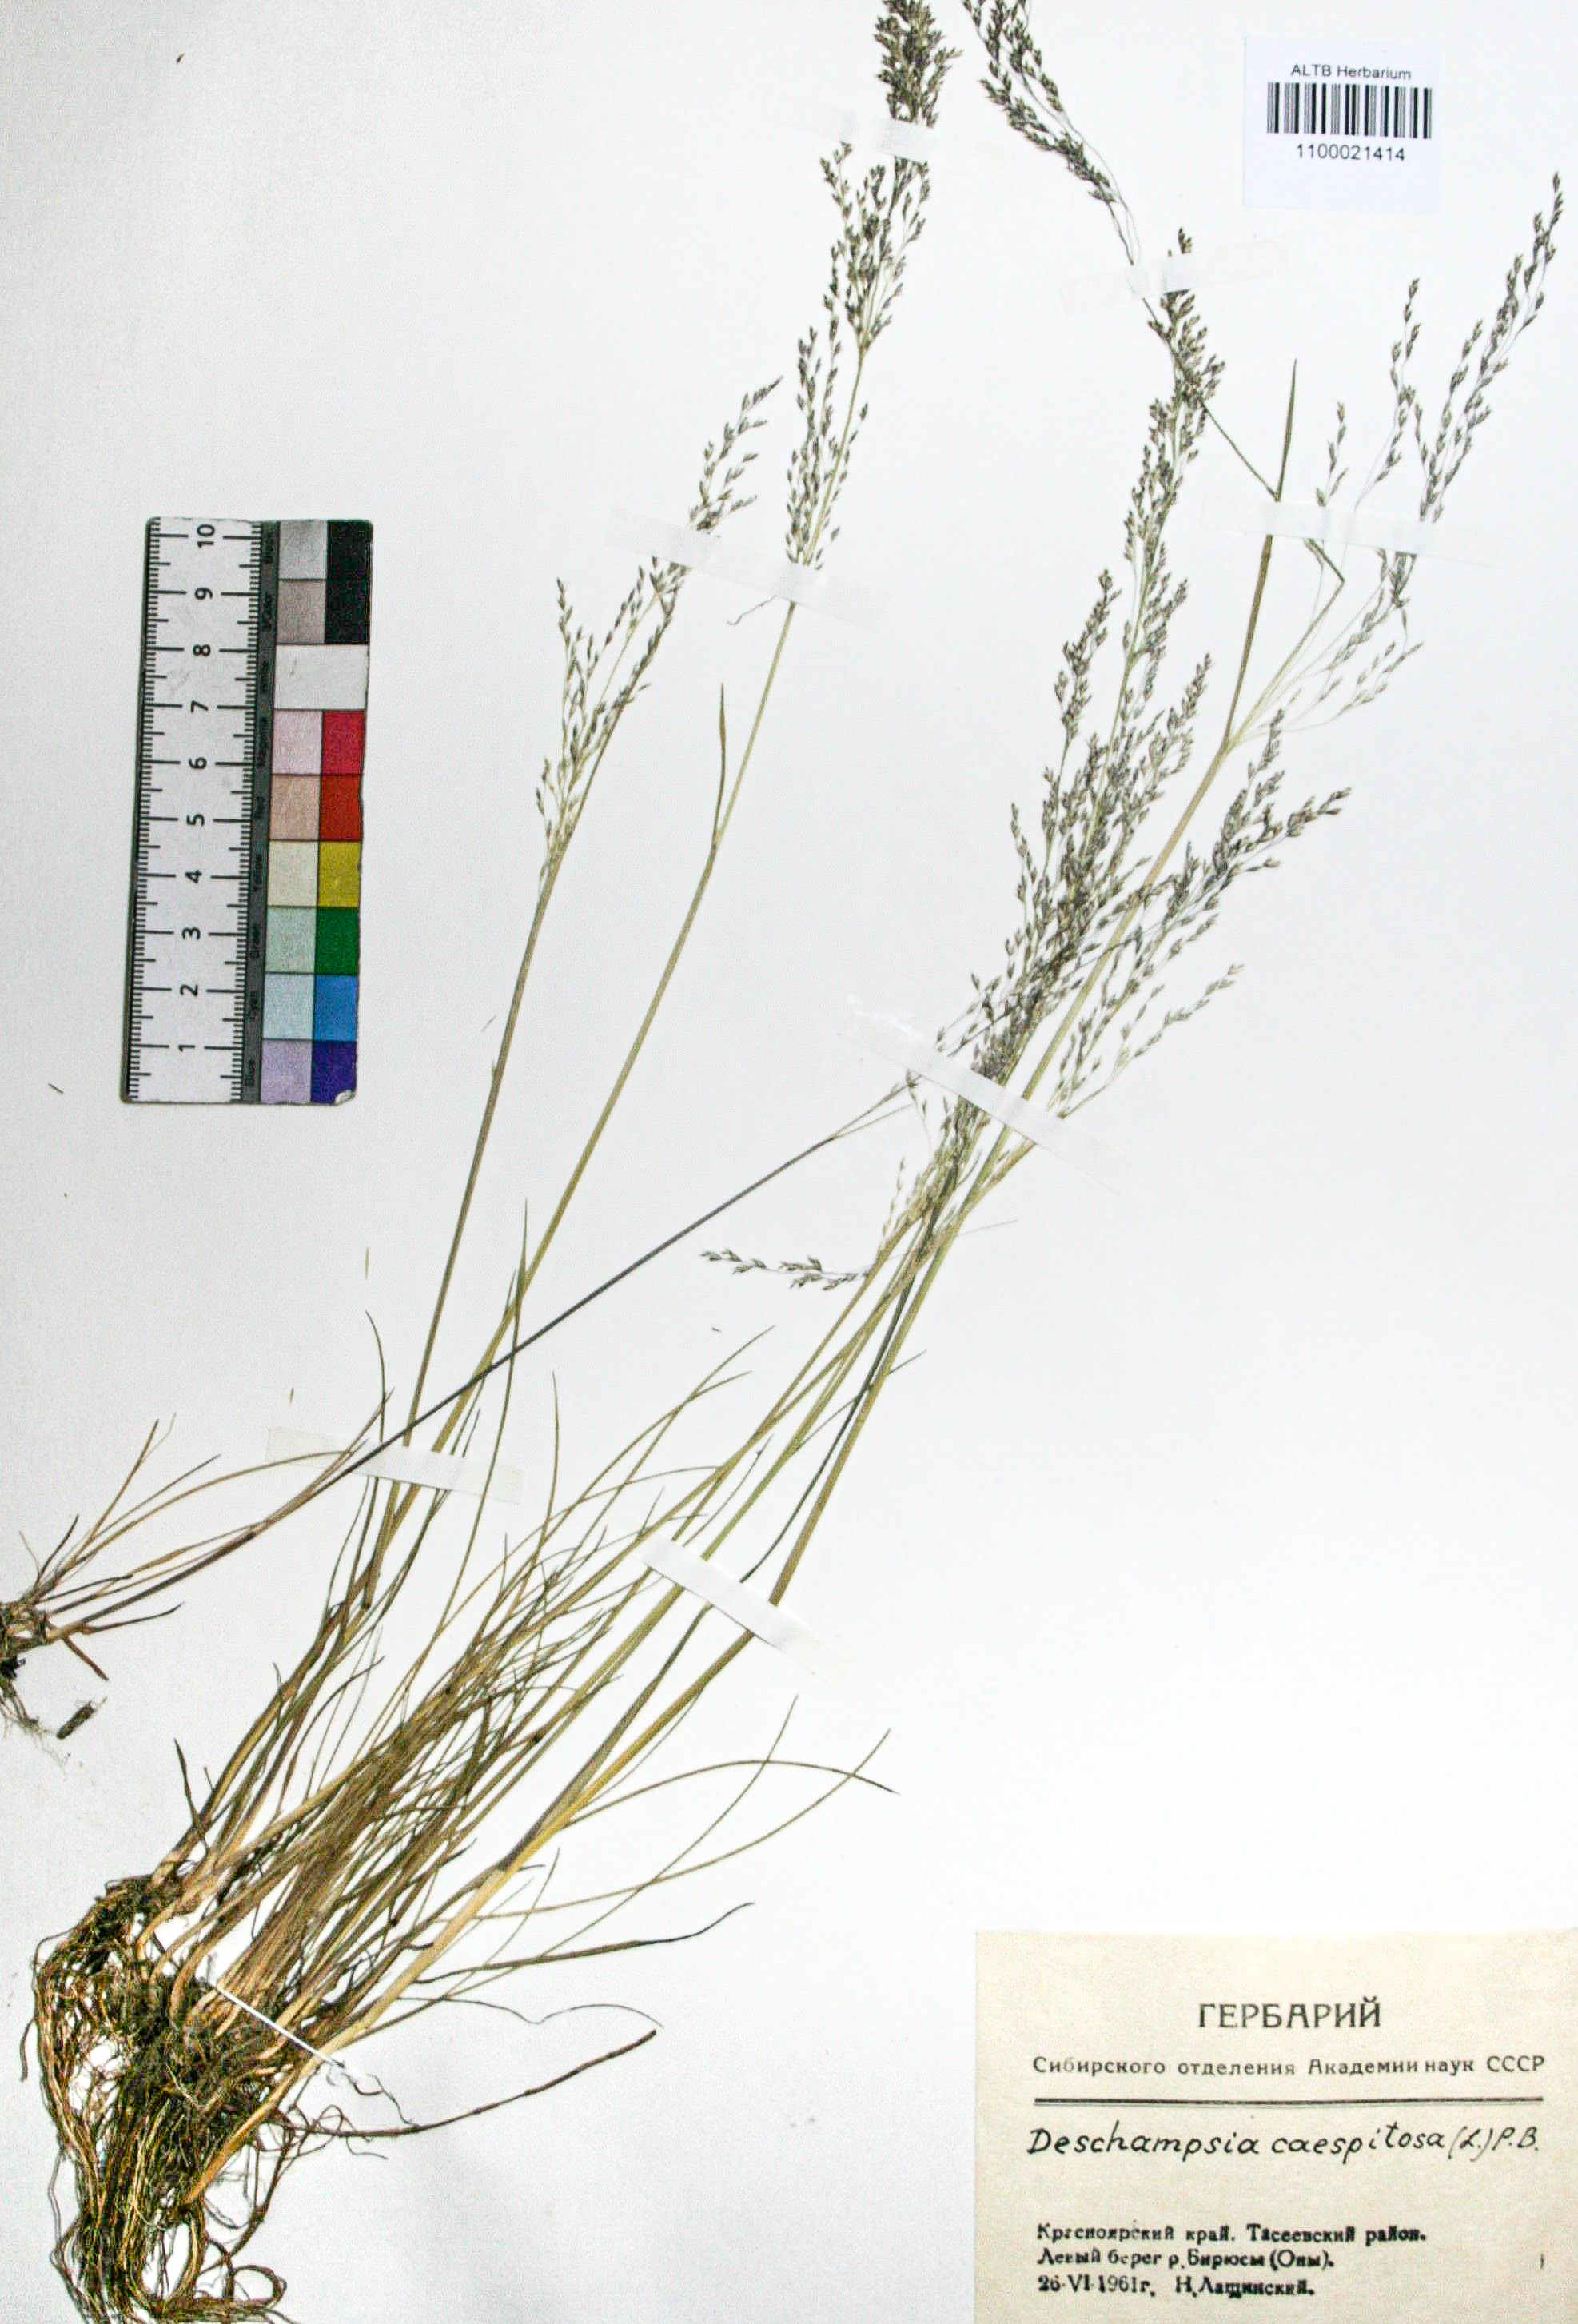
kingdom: Plantae
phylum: Tracheophyta
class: Liliopsida
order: Poales
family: Poaceae
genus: Deschampsia
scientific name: Deschampsia cespitosa
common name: Tufted hair-grass
